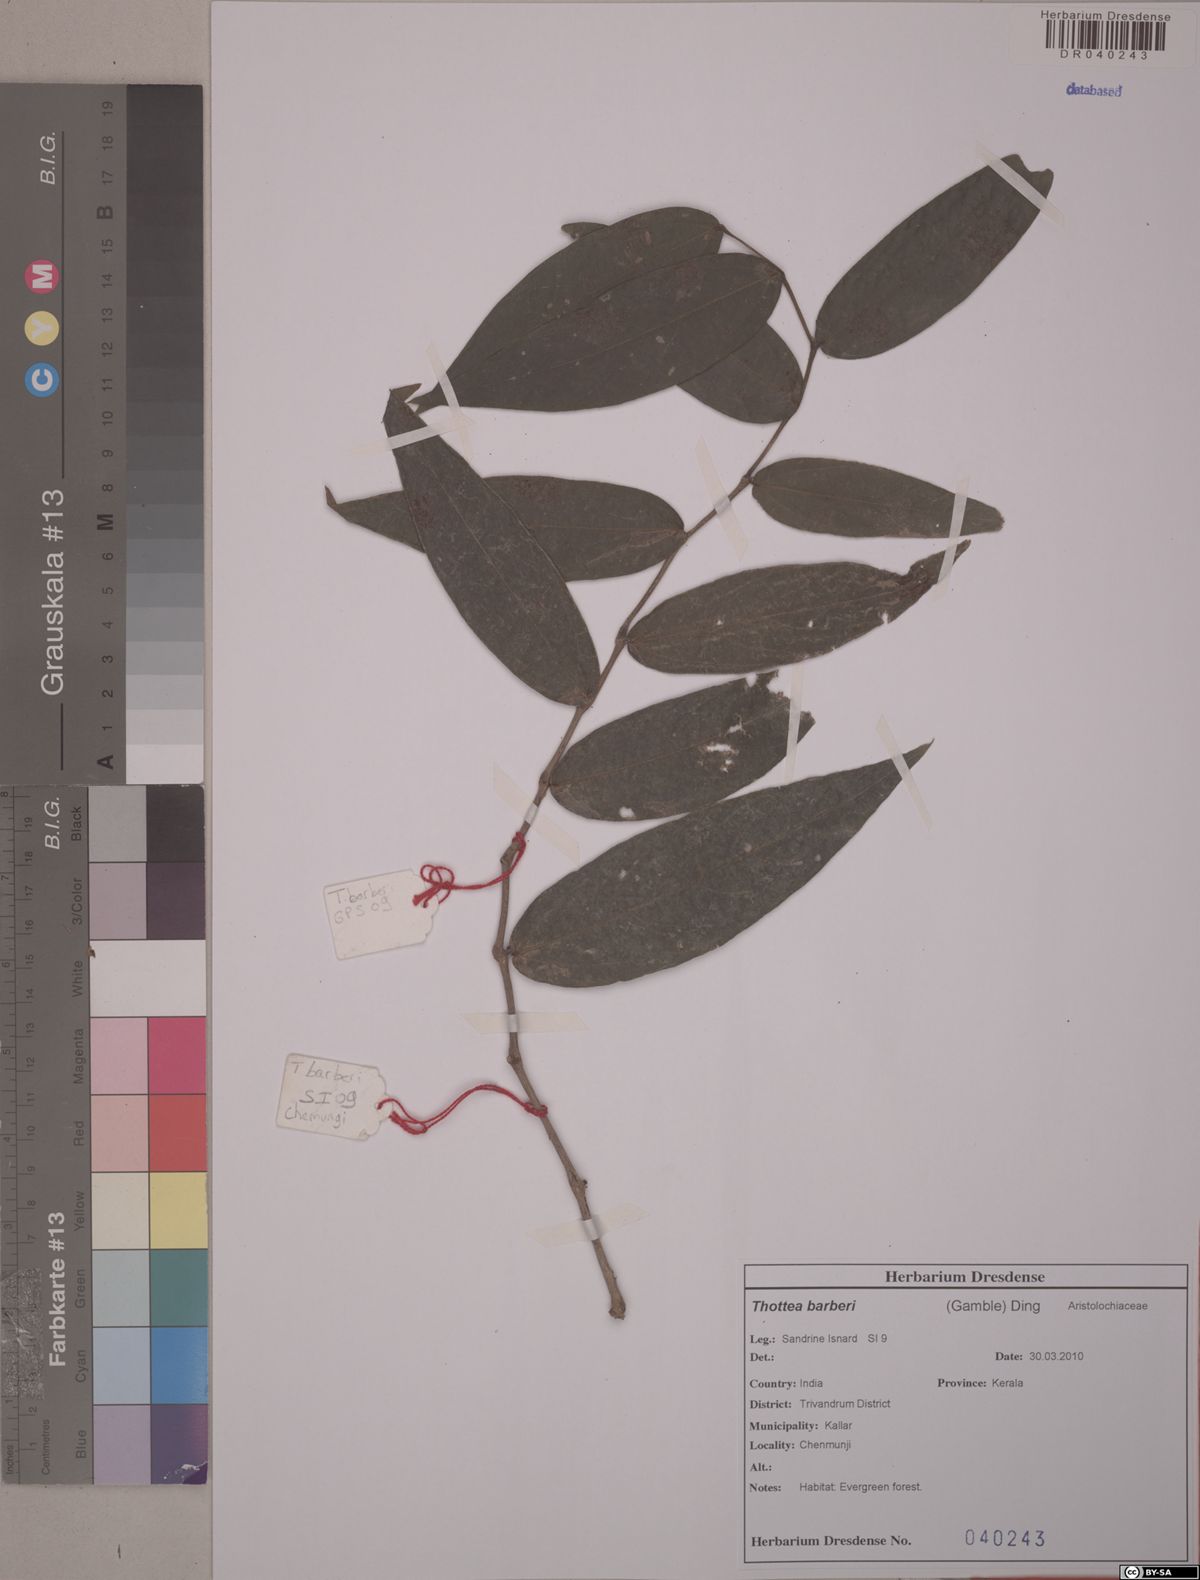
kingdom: Plantae
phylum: Tracheophyta
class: Magnoliopsida
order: Piperales
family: Aristolochiaceae
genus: Thottea
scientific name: Thottea barberi
